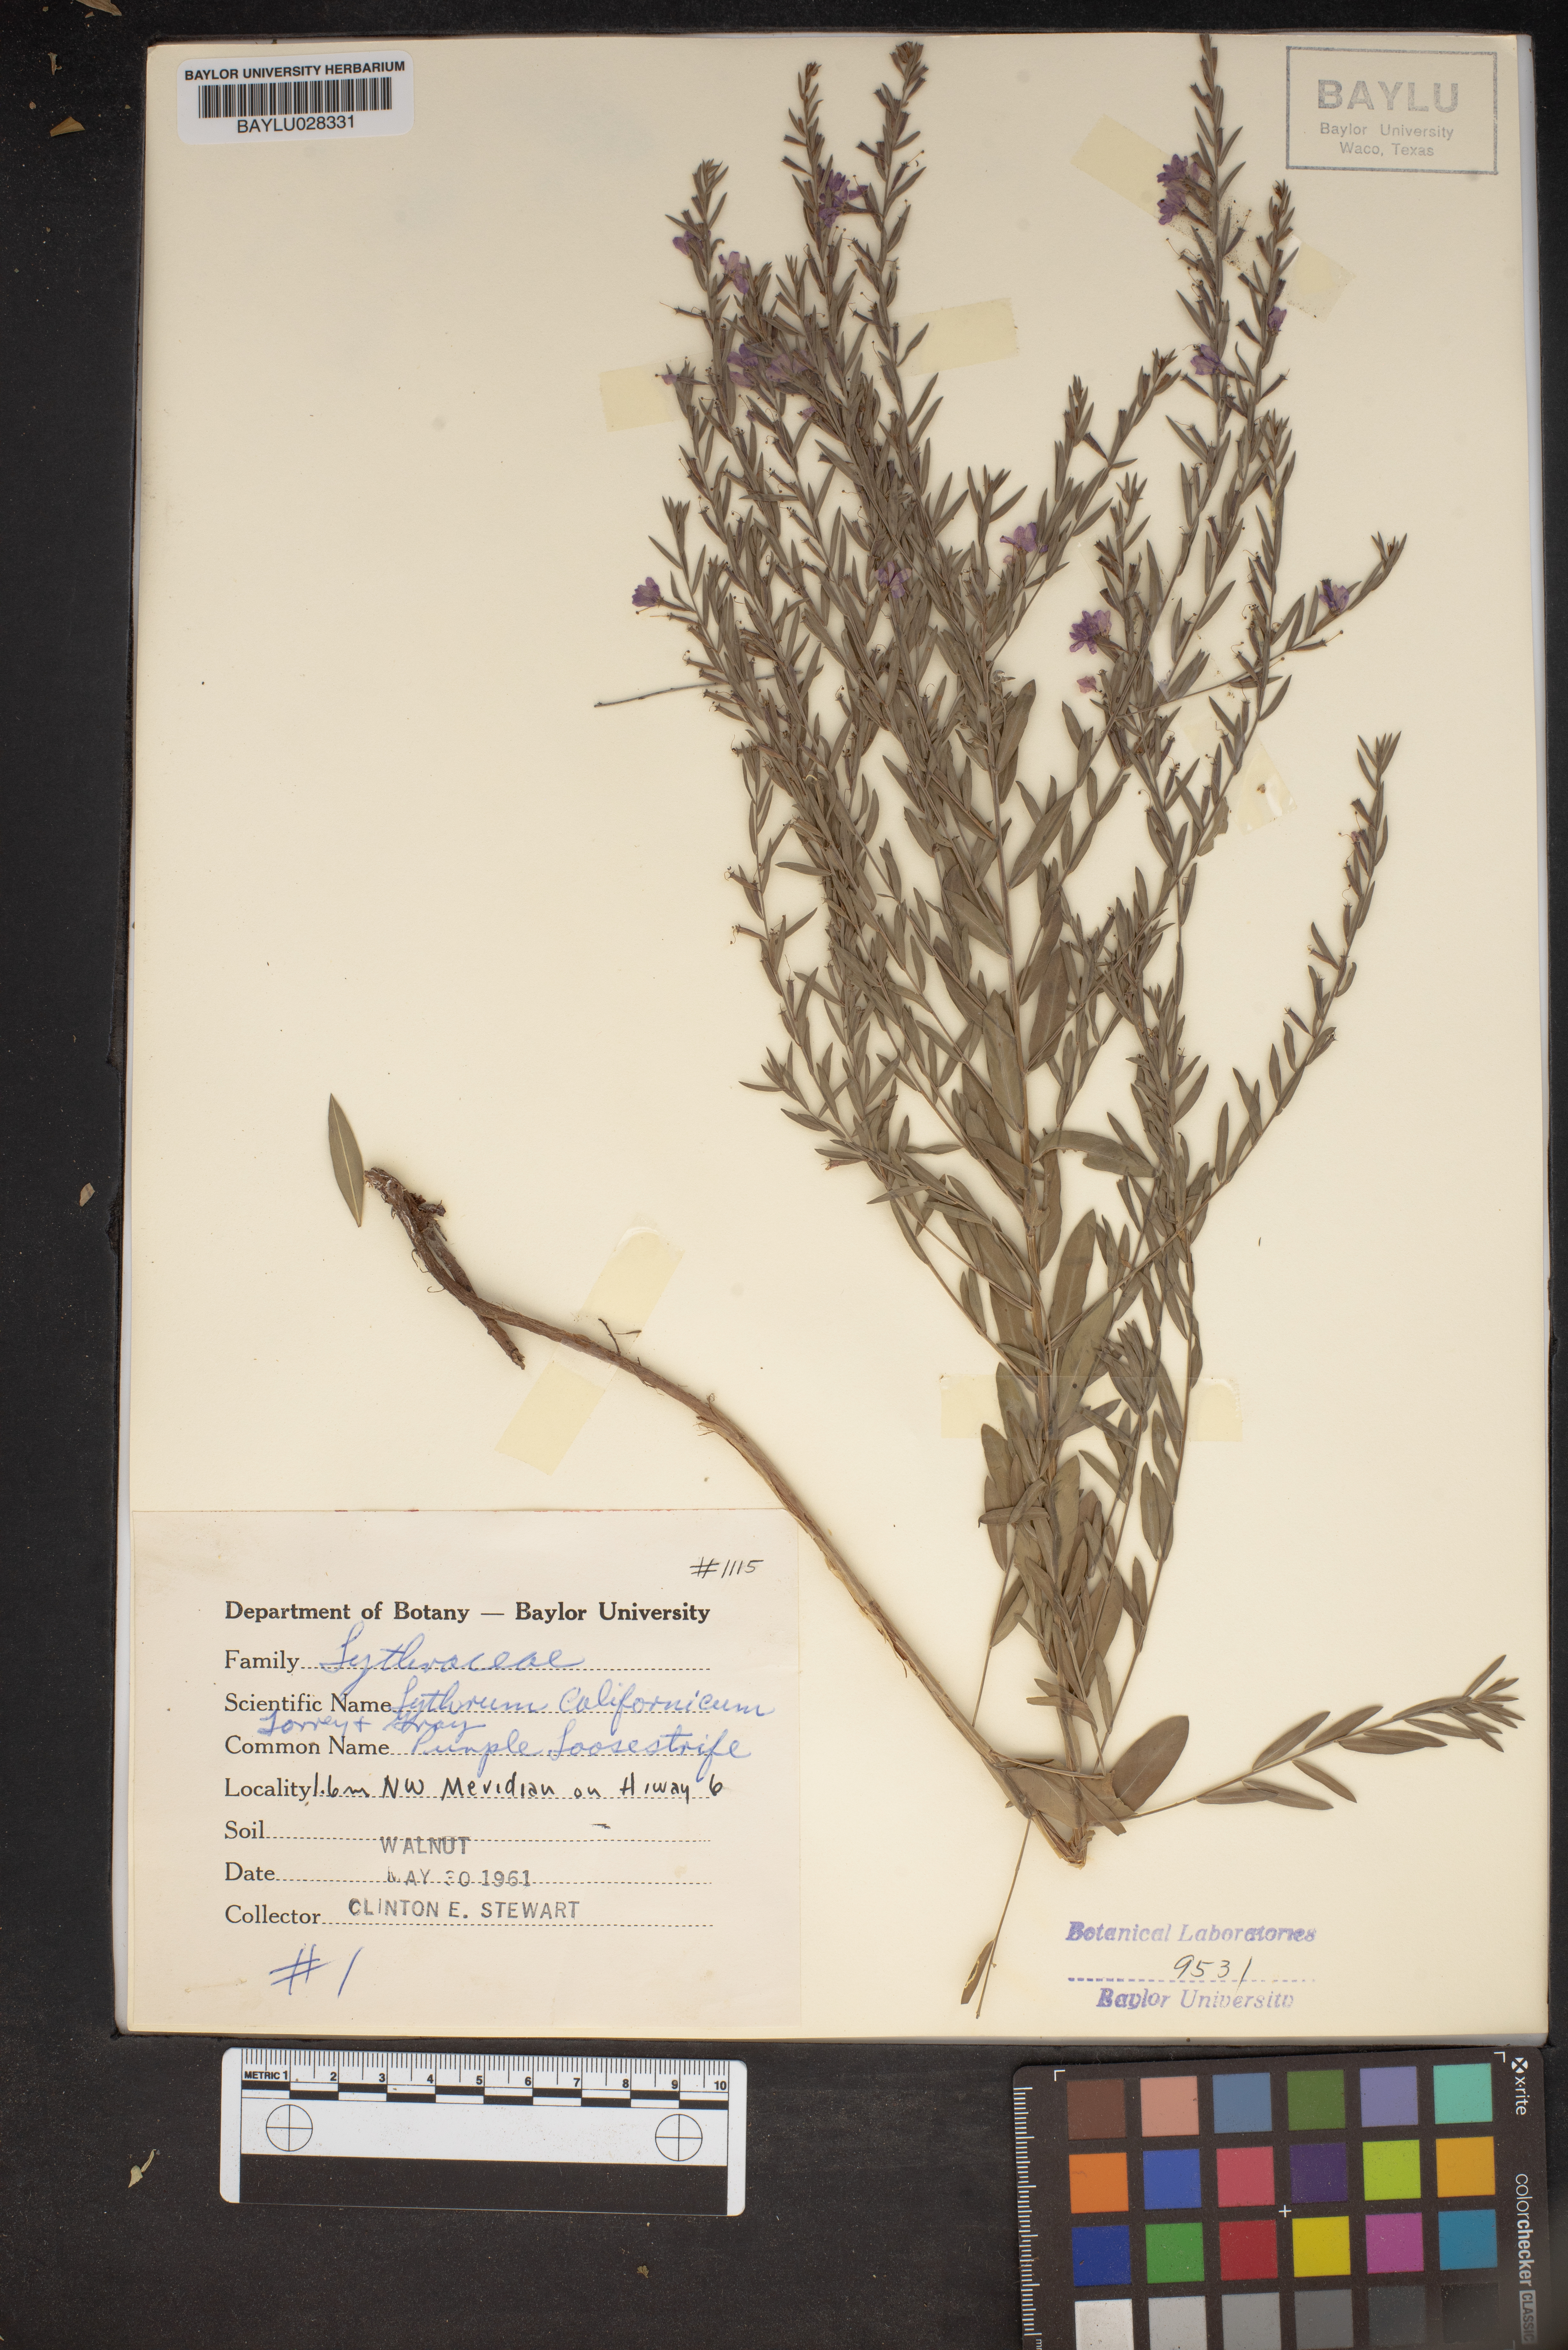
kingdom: Plantae
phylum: Tracheophyta
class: Magnoliopsida
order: Myrtales
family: Lythraceae
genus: Lythrum
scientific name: Lythrum californicum
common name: California loosestrife
